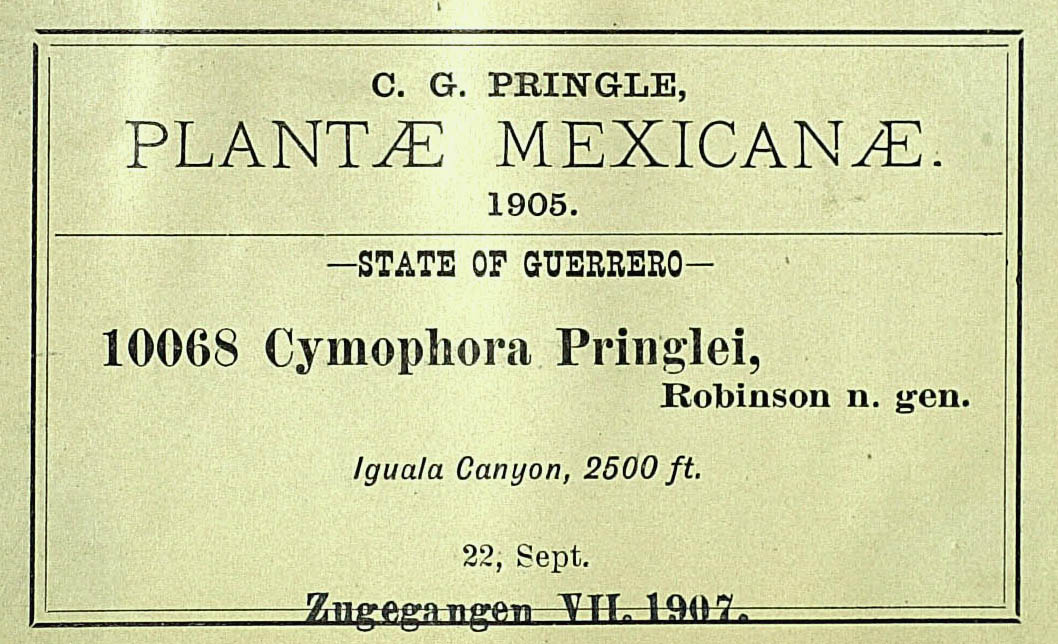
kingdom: Plantae
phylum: Tracheophyta
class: Magnoliopsida
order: Asterales
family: Asteraceae
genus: Cymophora
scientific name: Cymophora pringlei
